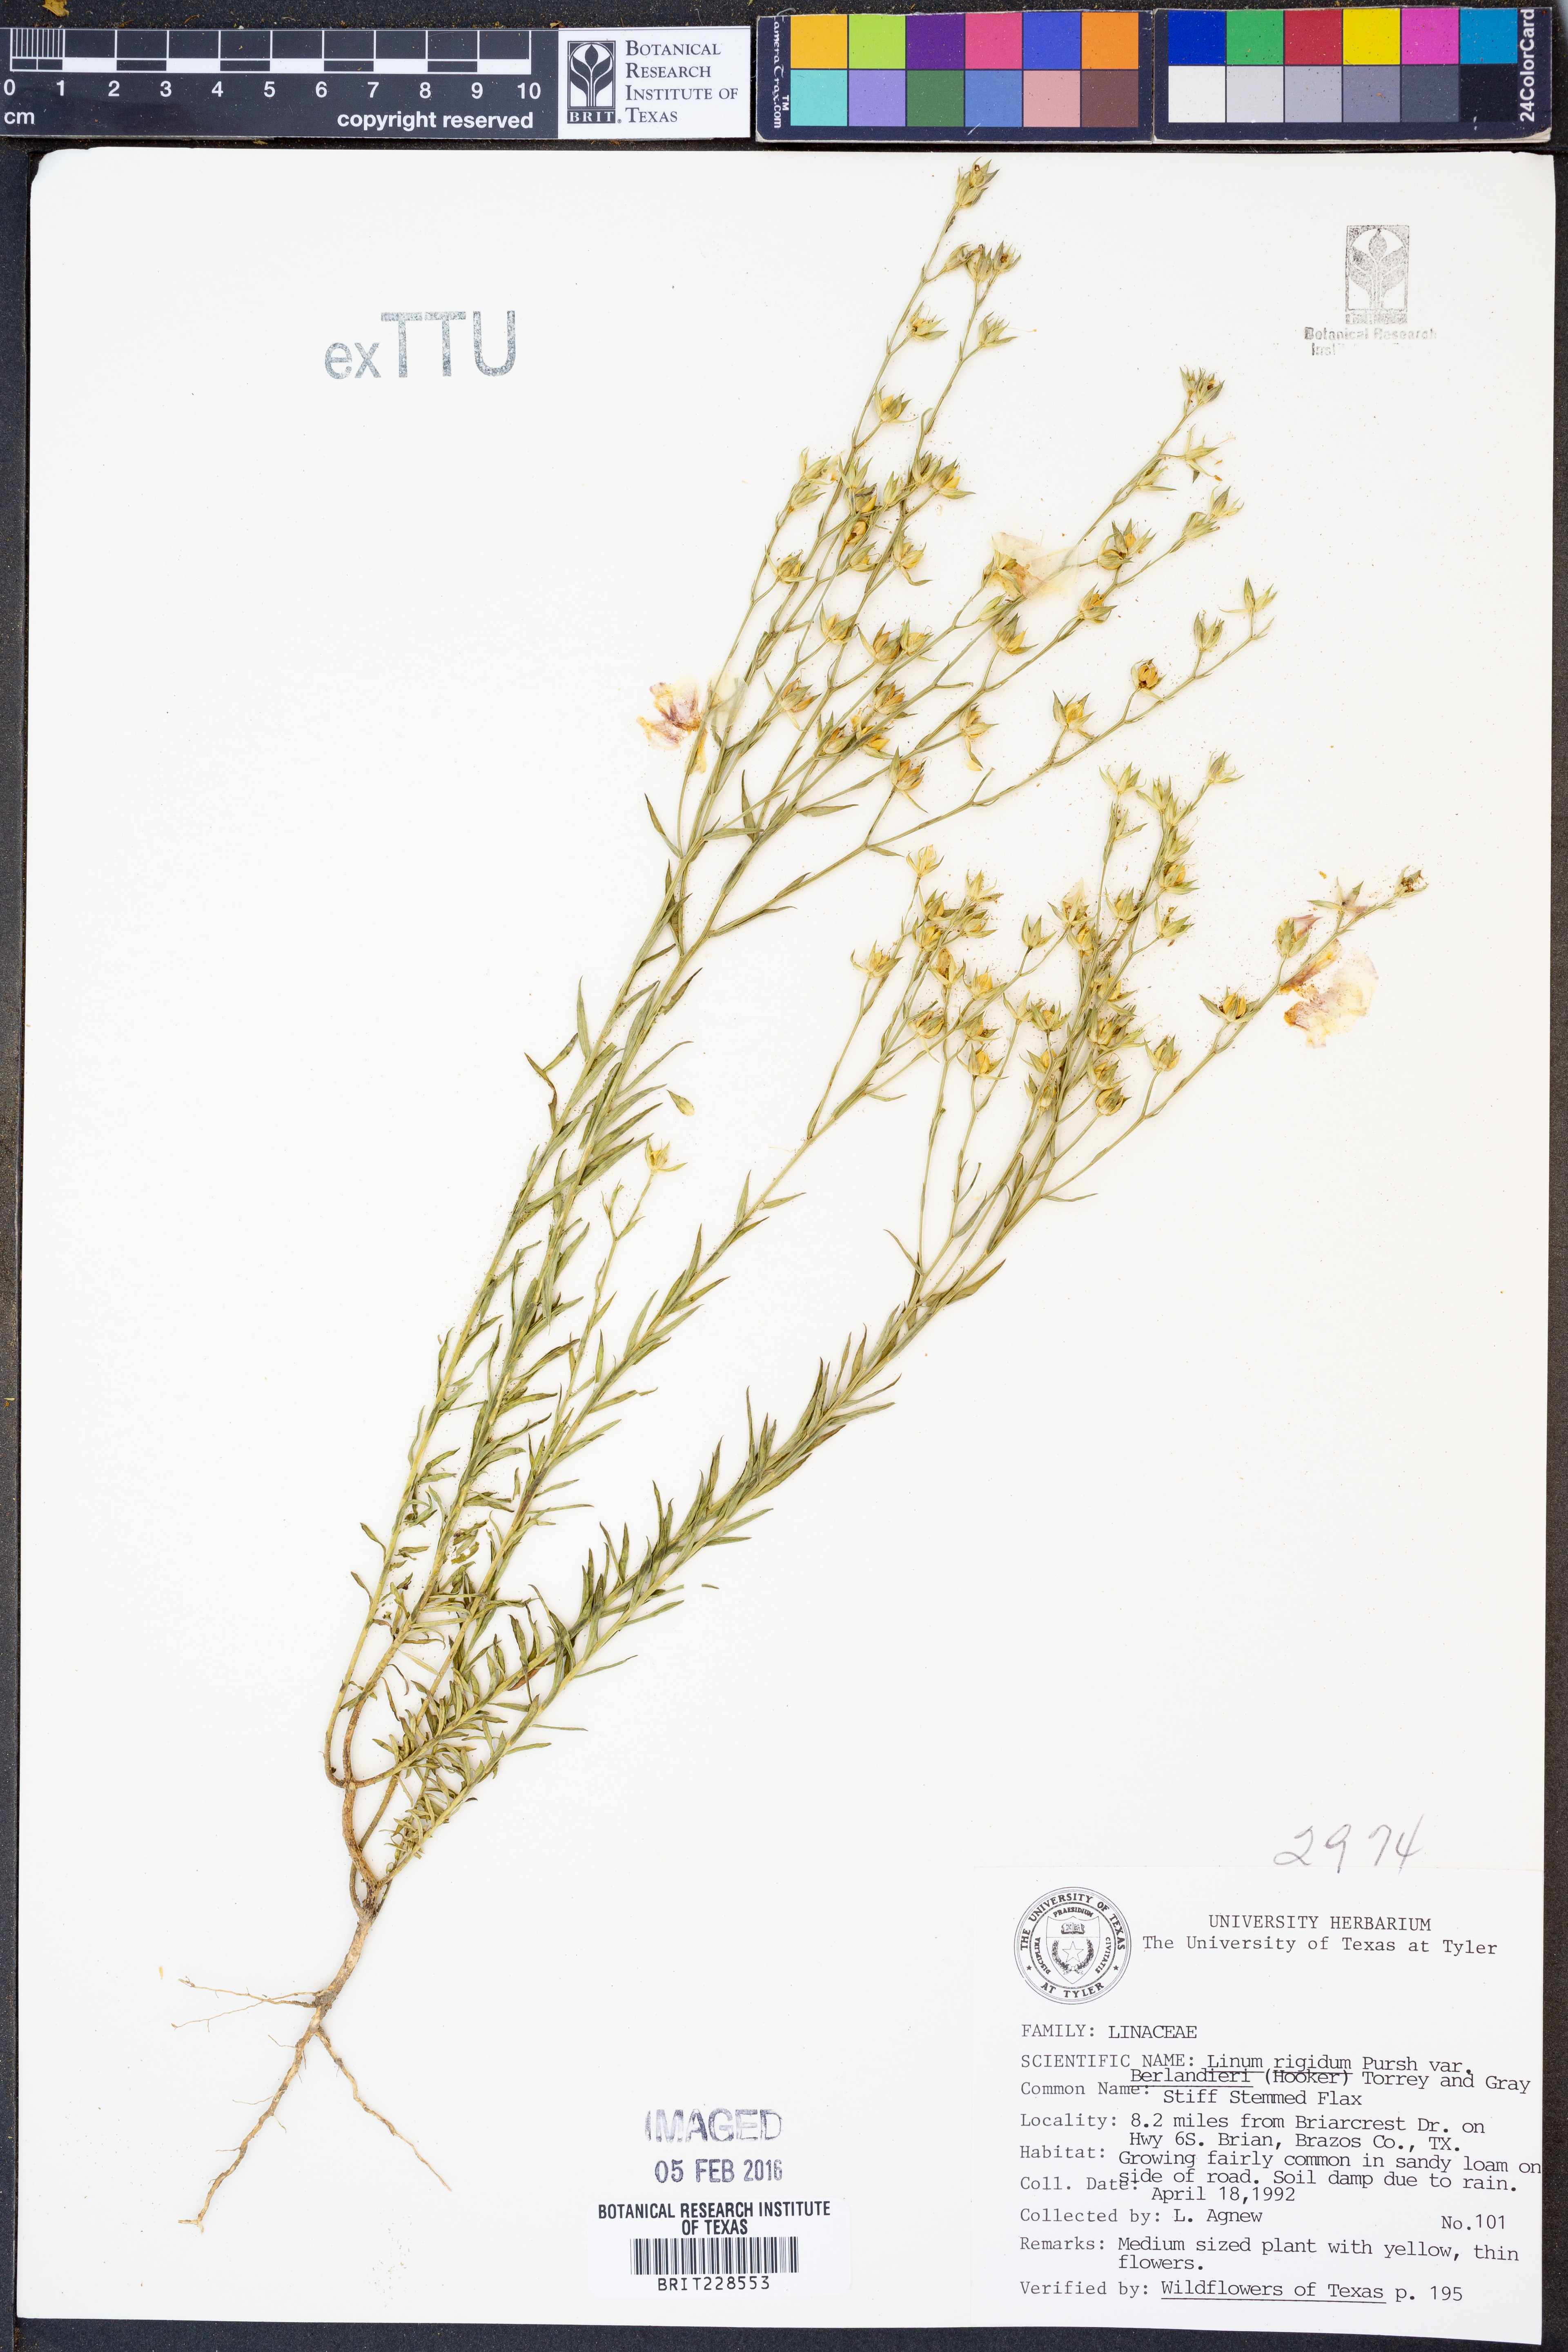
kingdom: Plantae
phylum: Tracheophyta
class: Magnoliopsida
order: Malpighiales
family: Linaceae
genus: Linum
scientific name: Linum berlandieri
